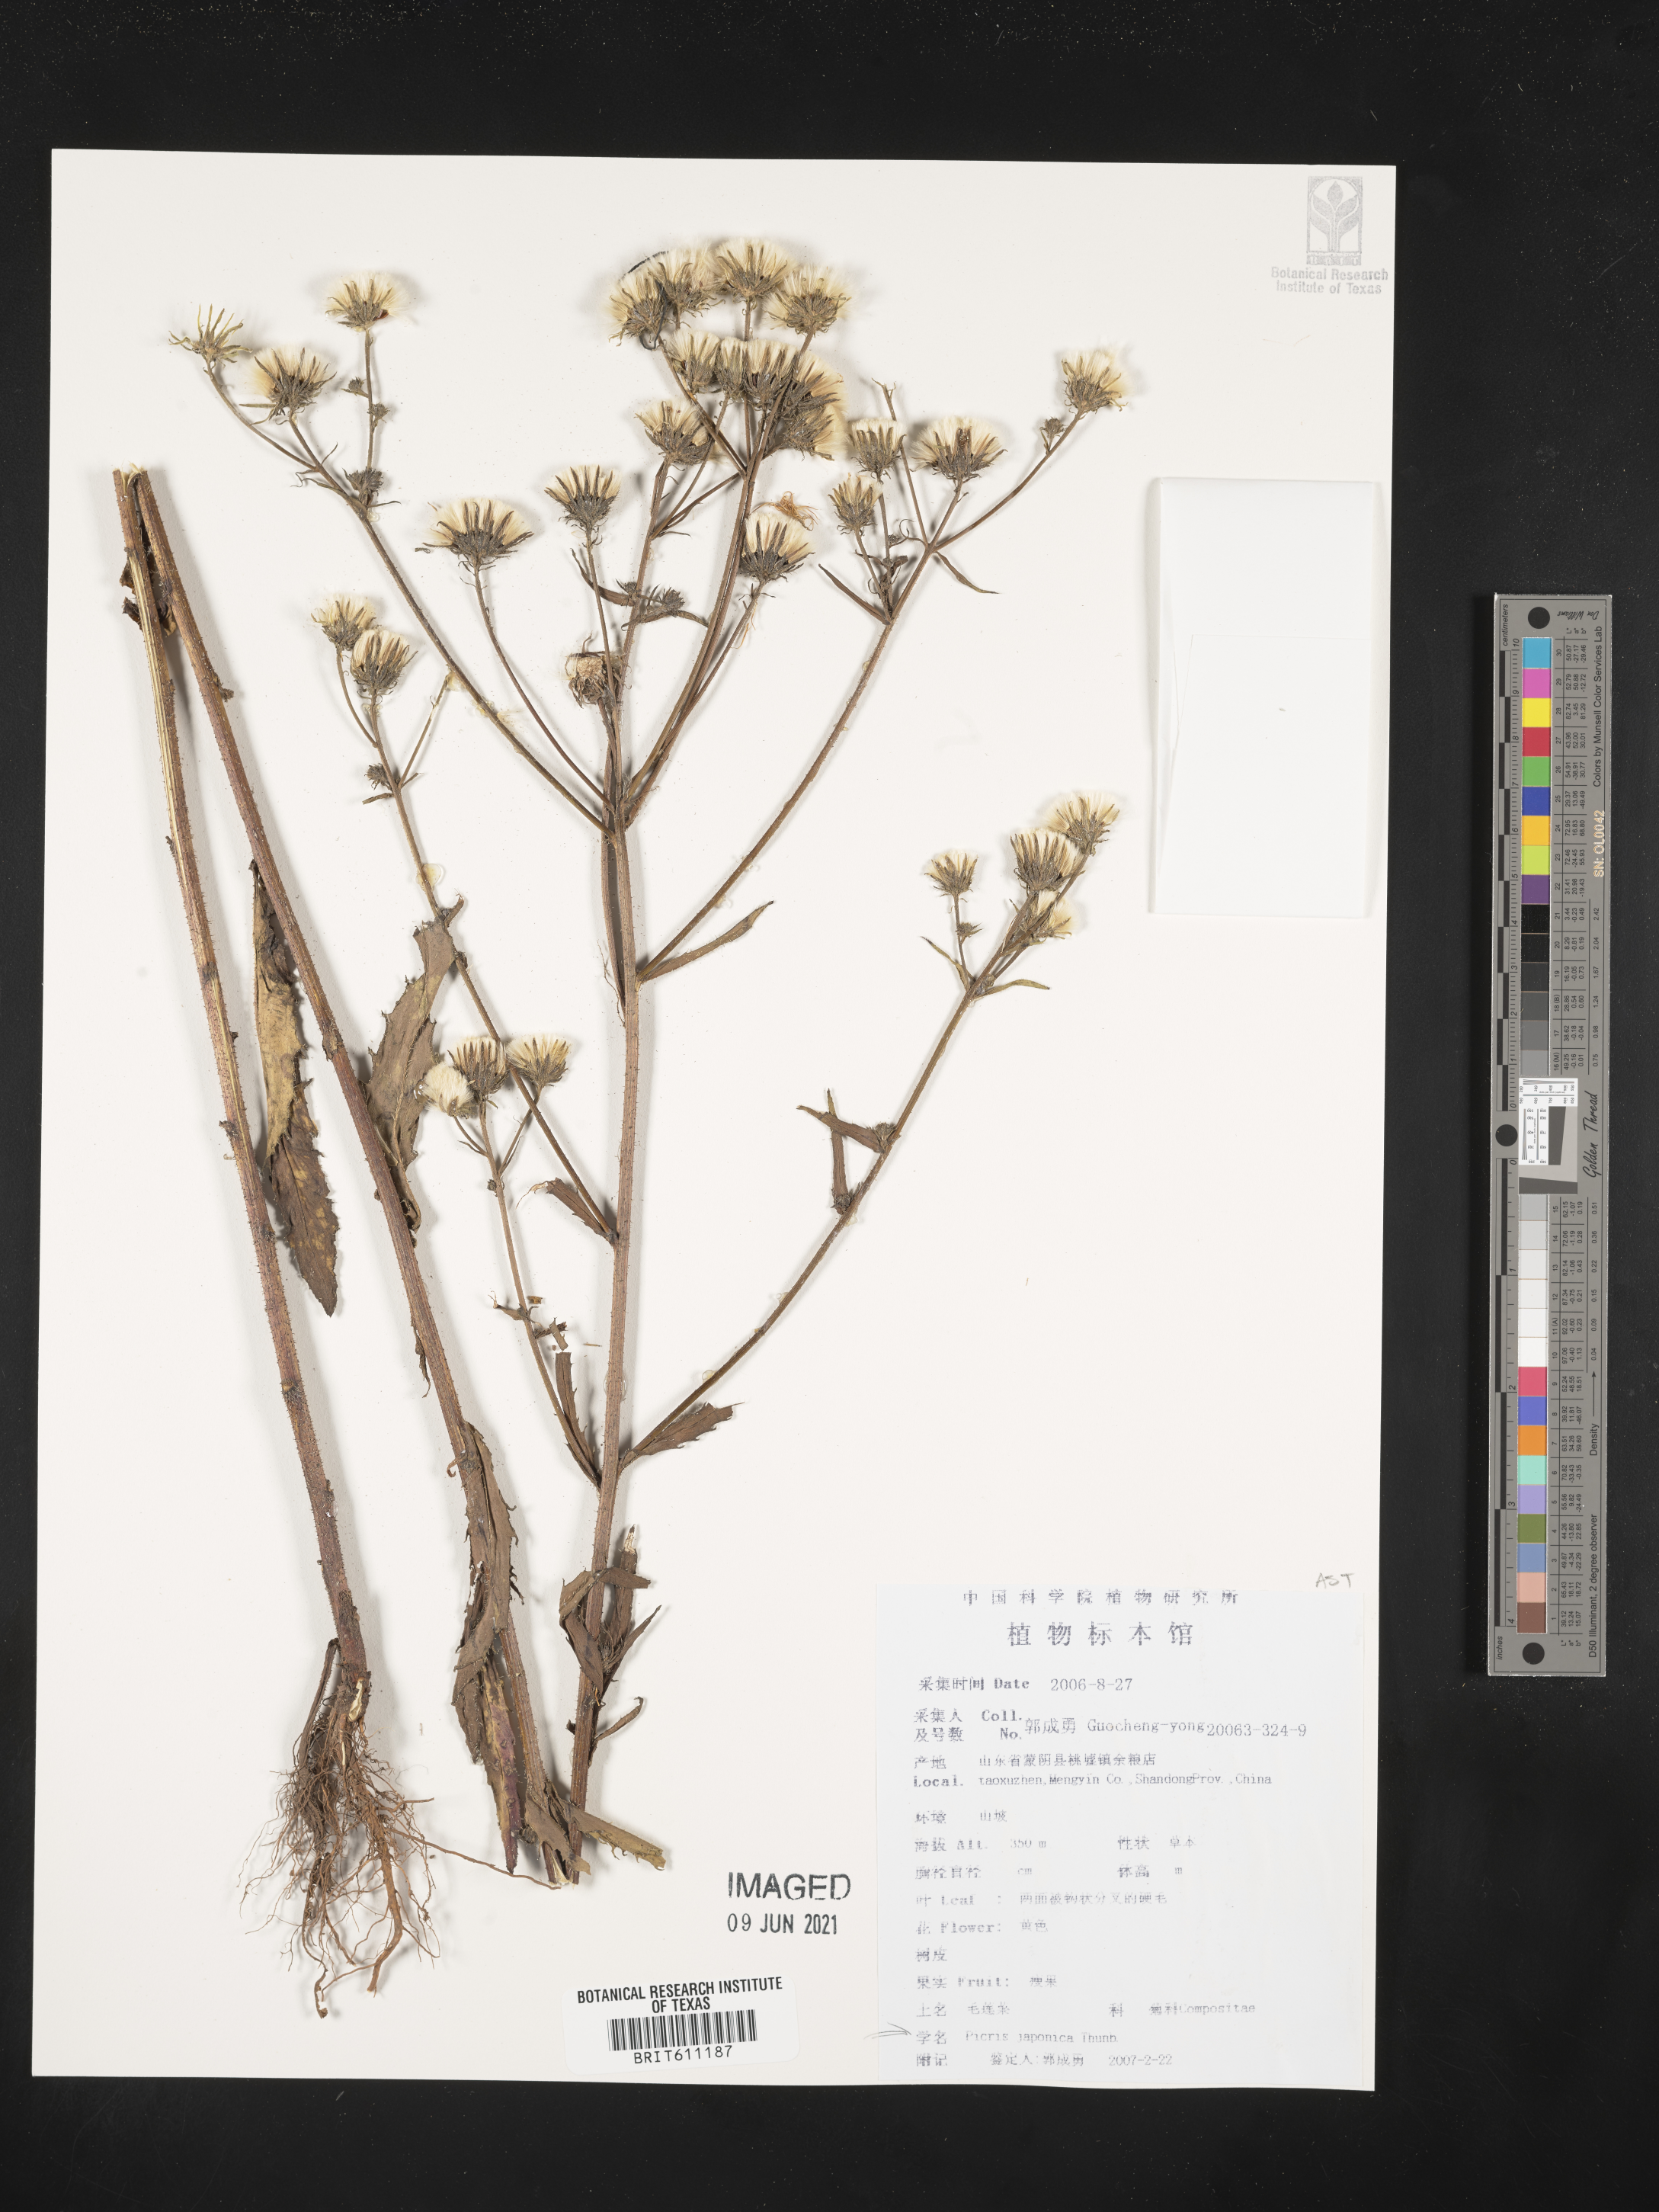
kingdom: Plantae
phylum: Tracheophyta
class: Magnoliopsida
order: Asterales
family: Asteraceae
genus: Picris
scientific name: Picris japonica
